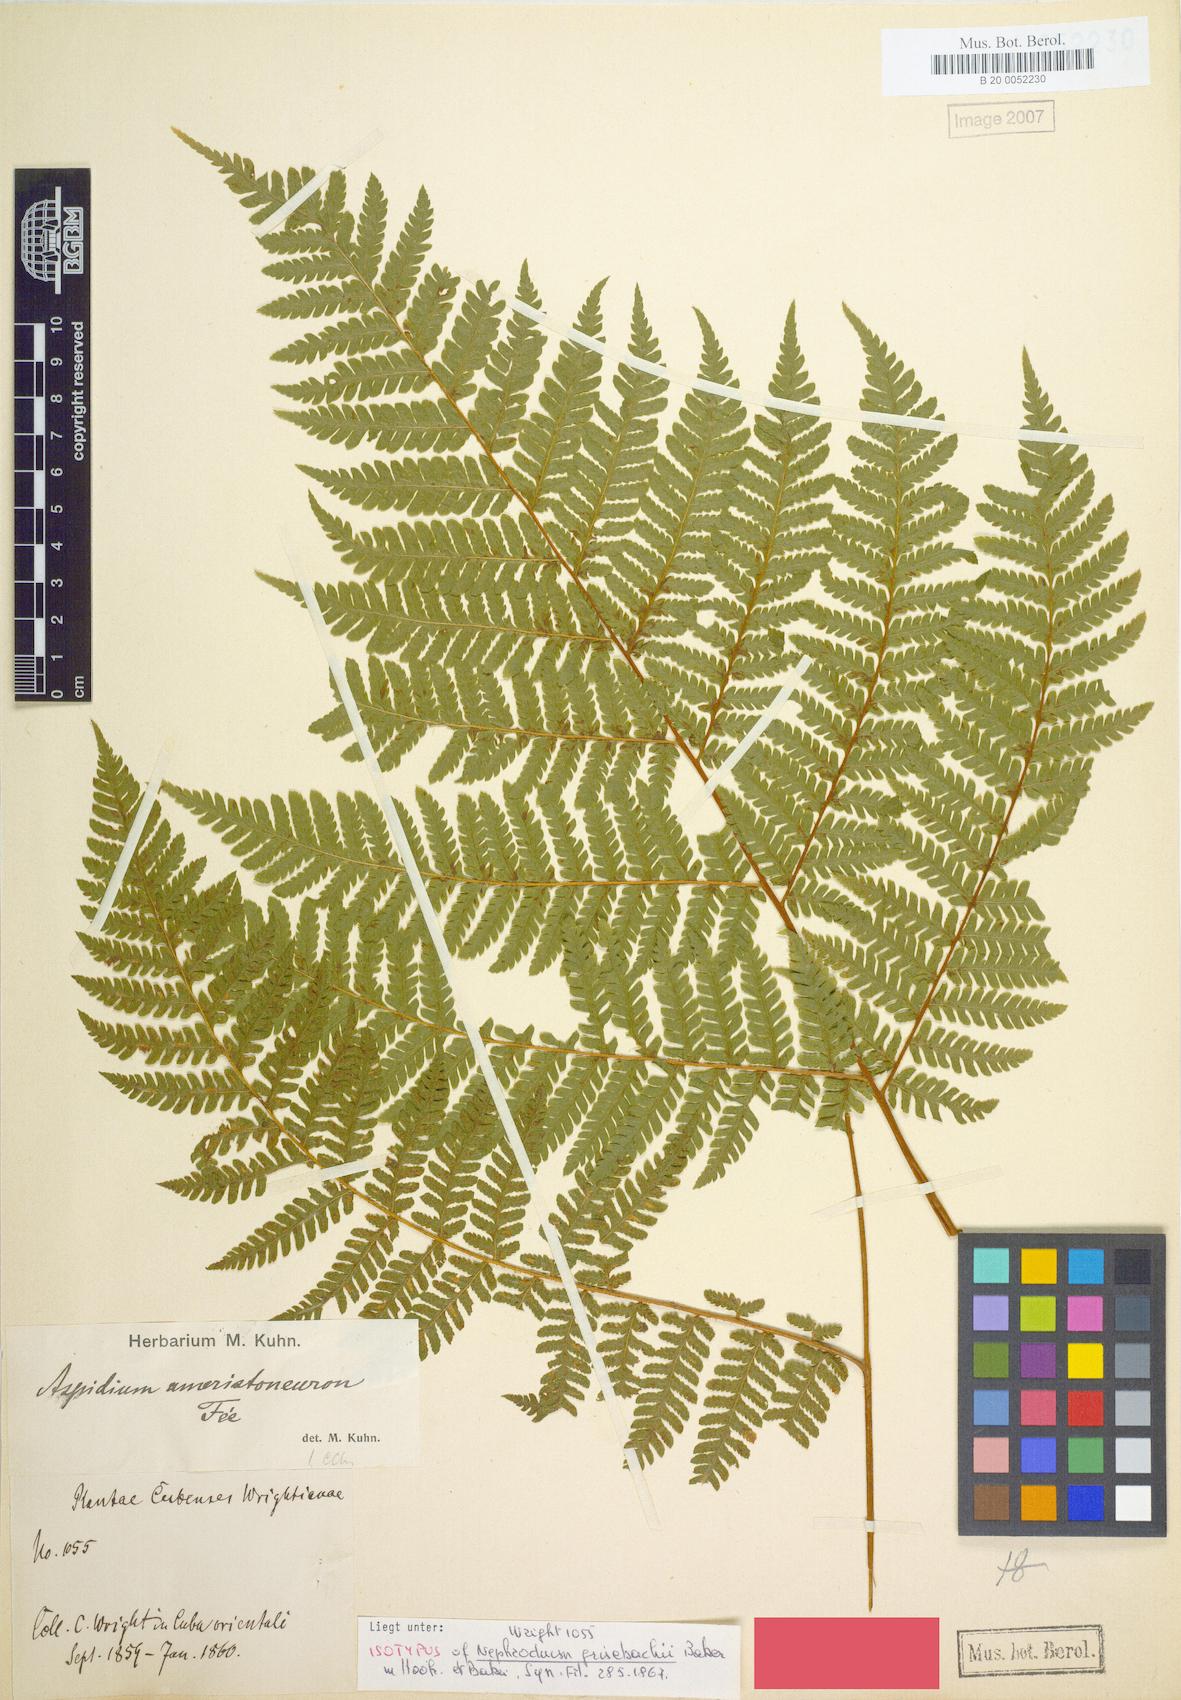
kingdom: Plantae
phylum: Tracheophyta
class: Polypodiopsida
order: Polypodiales
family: Dryopteridaceae
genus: Ctenitis
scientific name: Ctenitis grisebachii
